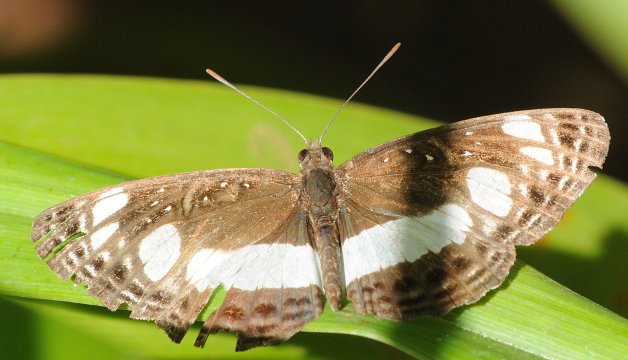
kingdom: Animalia
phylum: Arthropoda
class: Insecta
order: Lepidoptera
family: Nymphalidae
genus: Neptis
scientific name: Neptis saclava
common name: Spotted Sailer
